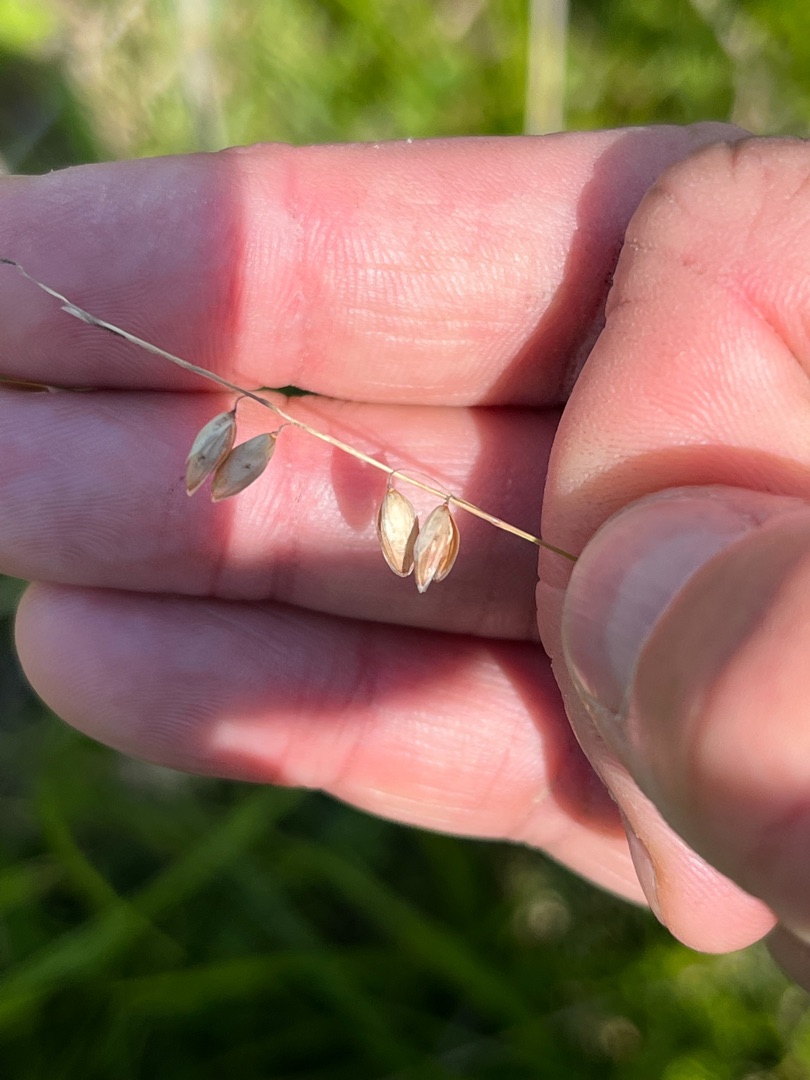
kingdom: Plantae
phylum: Tracheophyta
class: Liliopsida
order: Poales
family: Poaceae
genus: Melica
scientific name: Melica nutans
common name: Nikkende flitteraks
